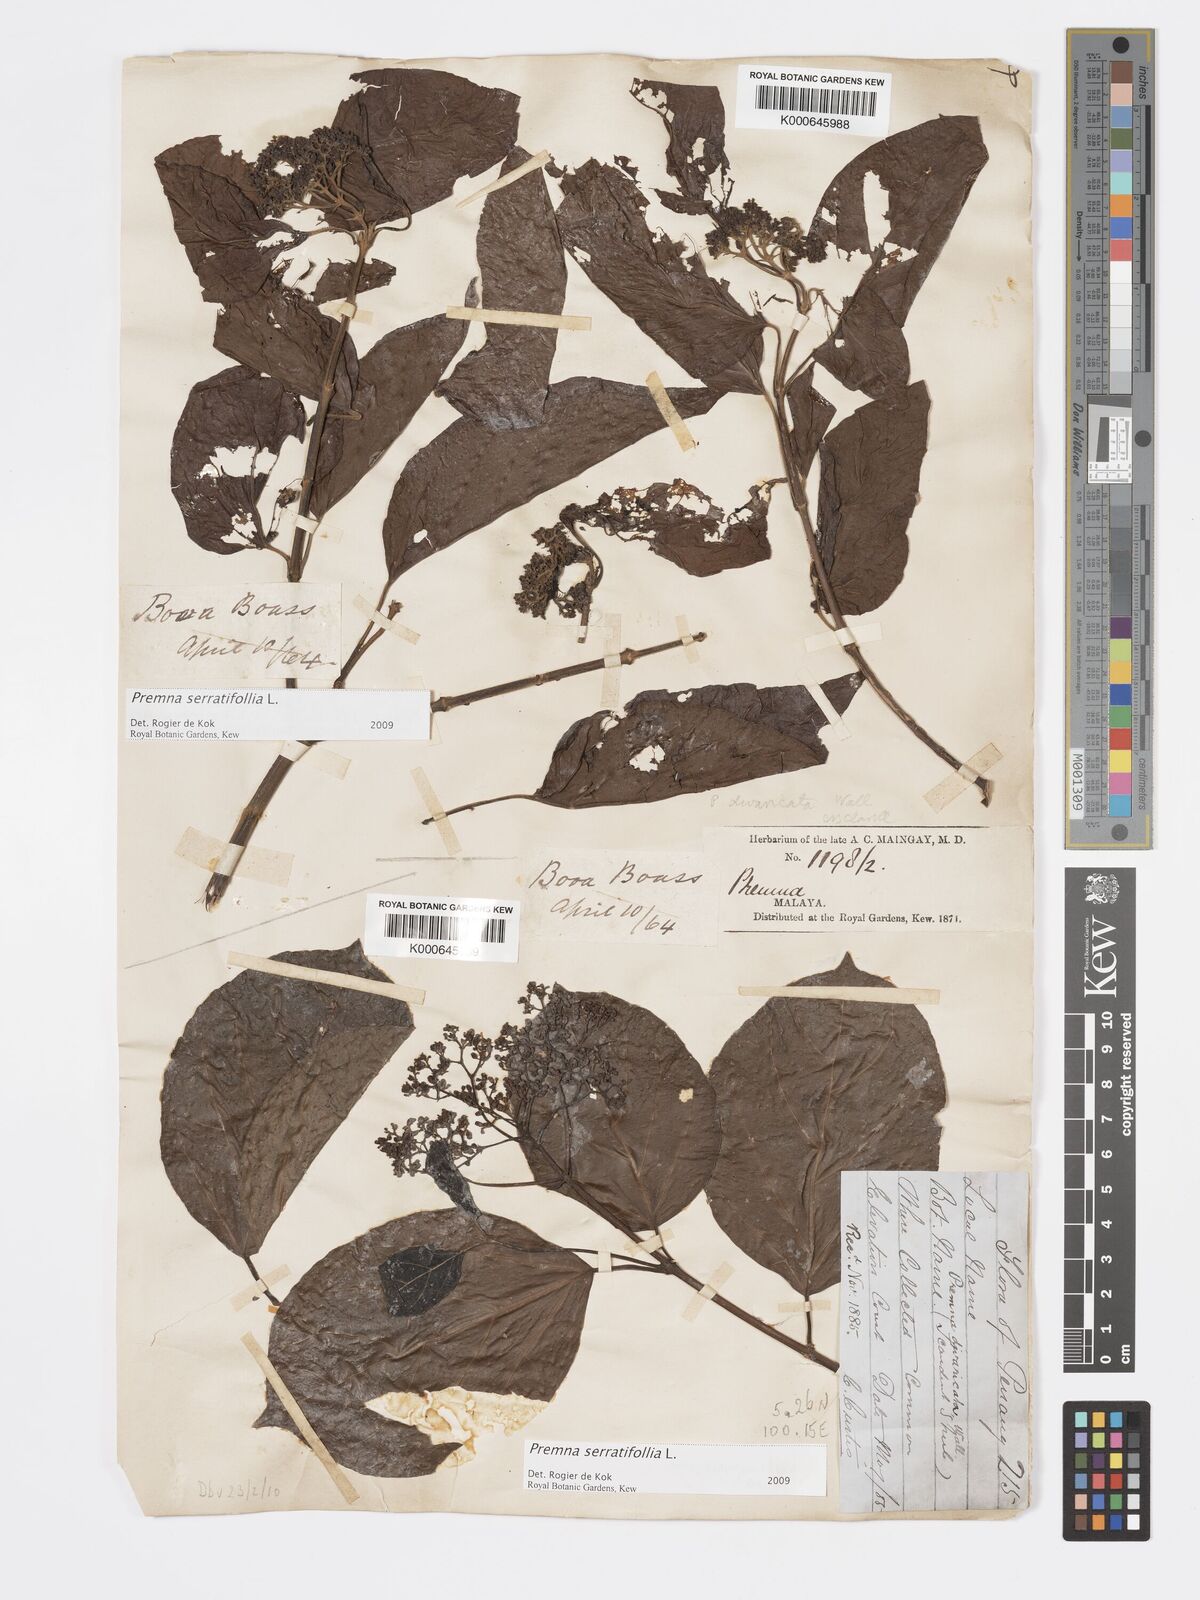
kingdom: Plantae
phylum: Tracheophyta
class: Magnoliopsida
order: Lamiales
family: Lamiaceae
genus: Premna
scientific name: Premna serratifolia
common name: Bastard guelder
